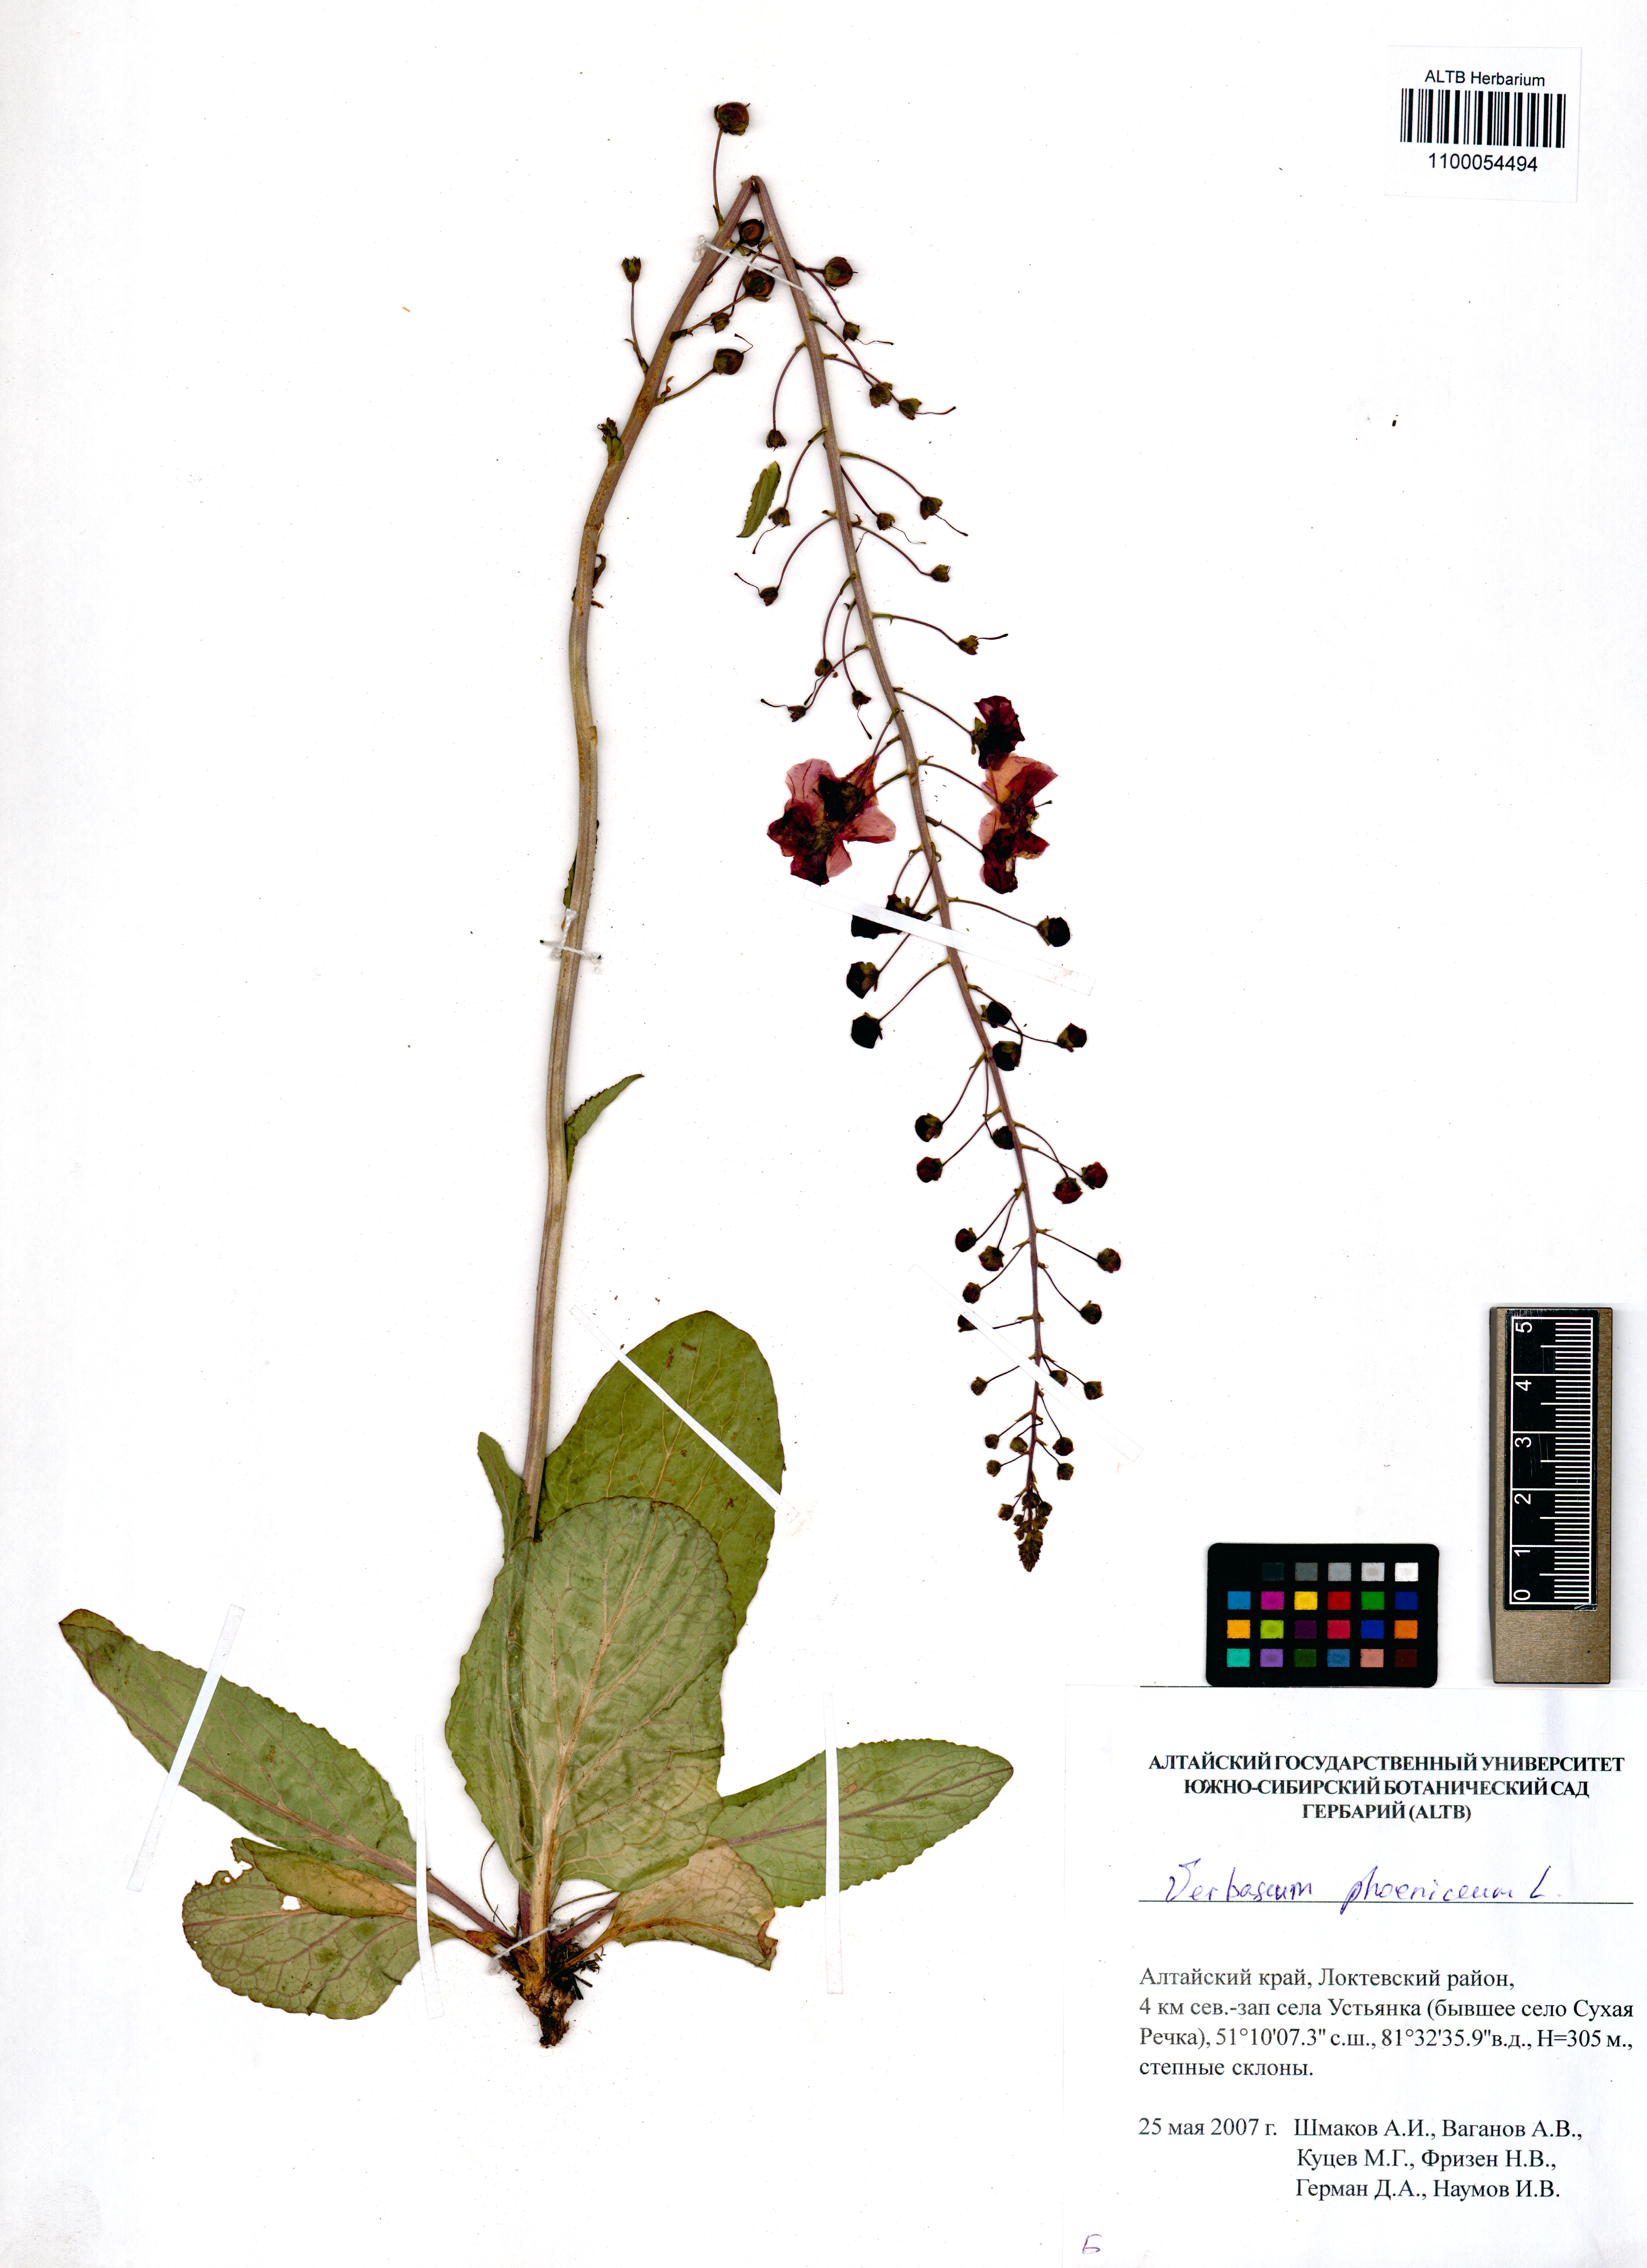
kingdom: Plantae
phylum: Tracheophyta
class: Magnoliopsida
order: Lamiales
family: Scrophulariaceae
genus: Verbascum
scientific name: Verbascum phoeniceum
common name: Purple mullein
